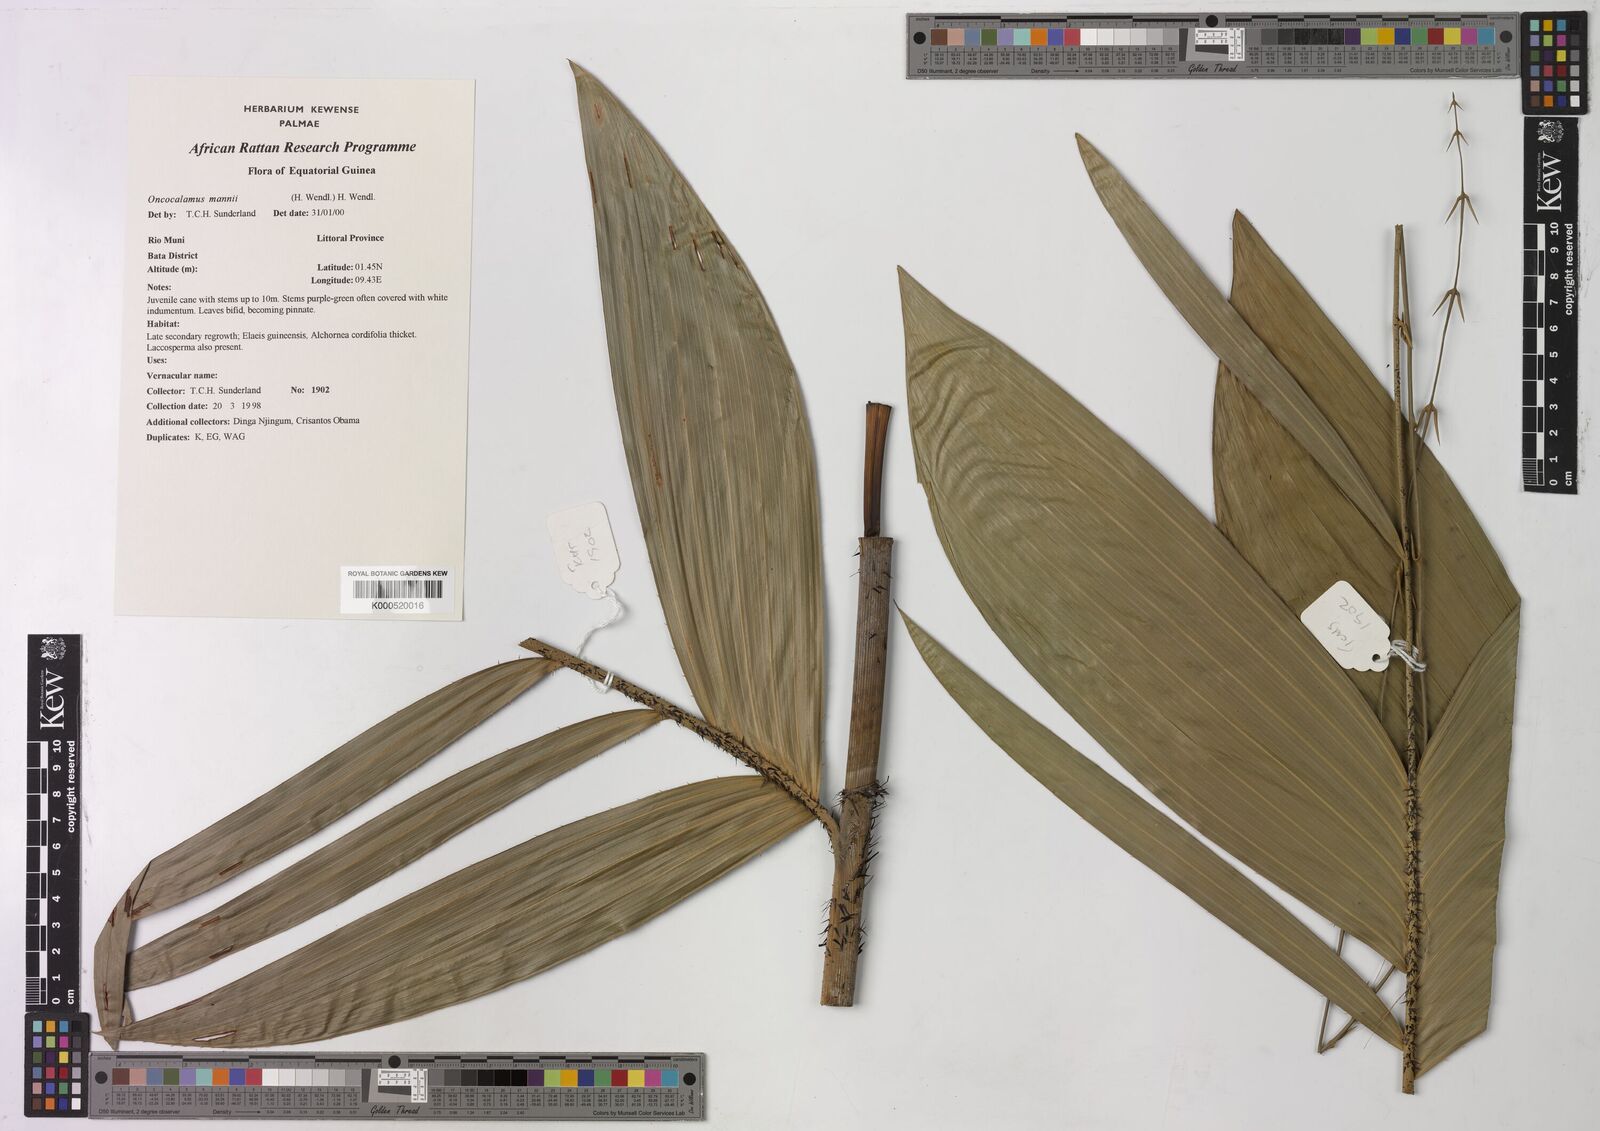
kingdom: Plantae
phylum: Tracheophyta
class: Liliopsida
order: Arecales
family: Arecaceae
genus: Oncocalamus
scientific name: Oncocalamus mannii
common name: Rattan
